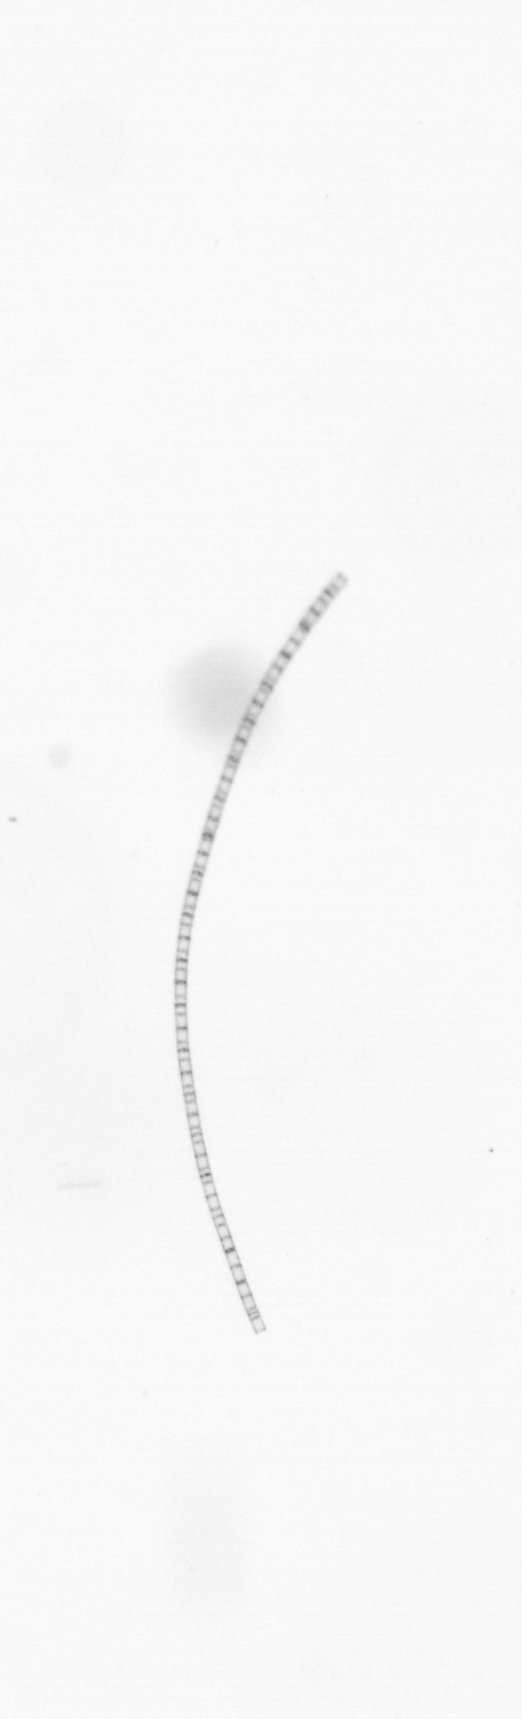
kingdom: Chromista
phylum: Ochrophyta
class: Bacillariophyceae
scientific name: Bacillariophyceae
